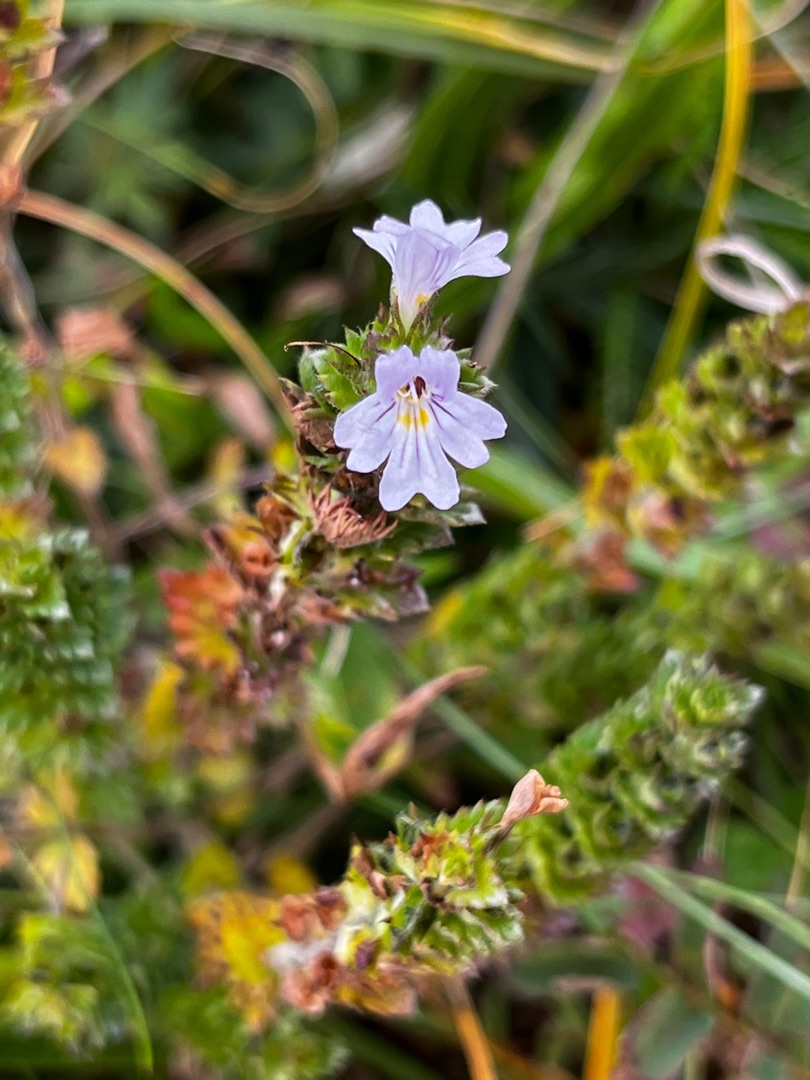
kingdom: Plantae
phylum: Tracheophyta
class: Magnoliopsida
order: Lamiales
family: Orobanchaceae
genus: Euphrasia
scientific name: Euphrasia nemorosa
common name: Kort øjentrøst
